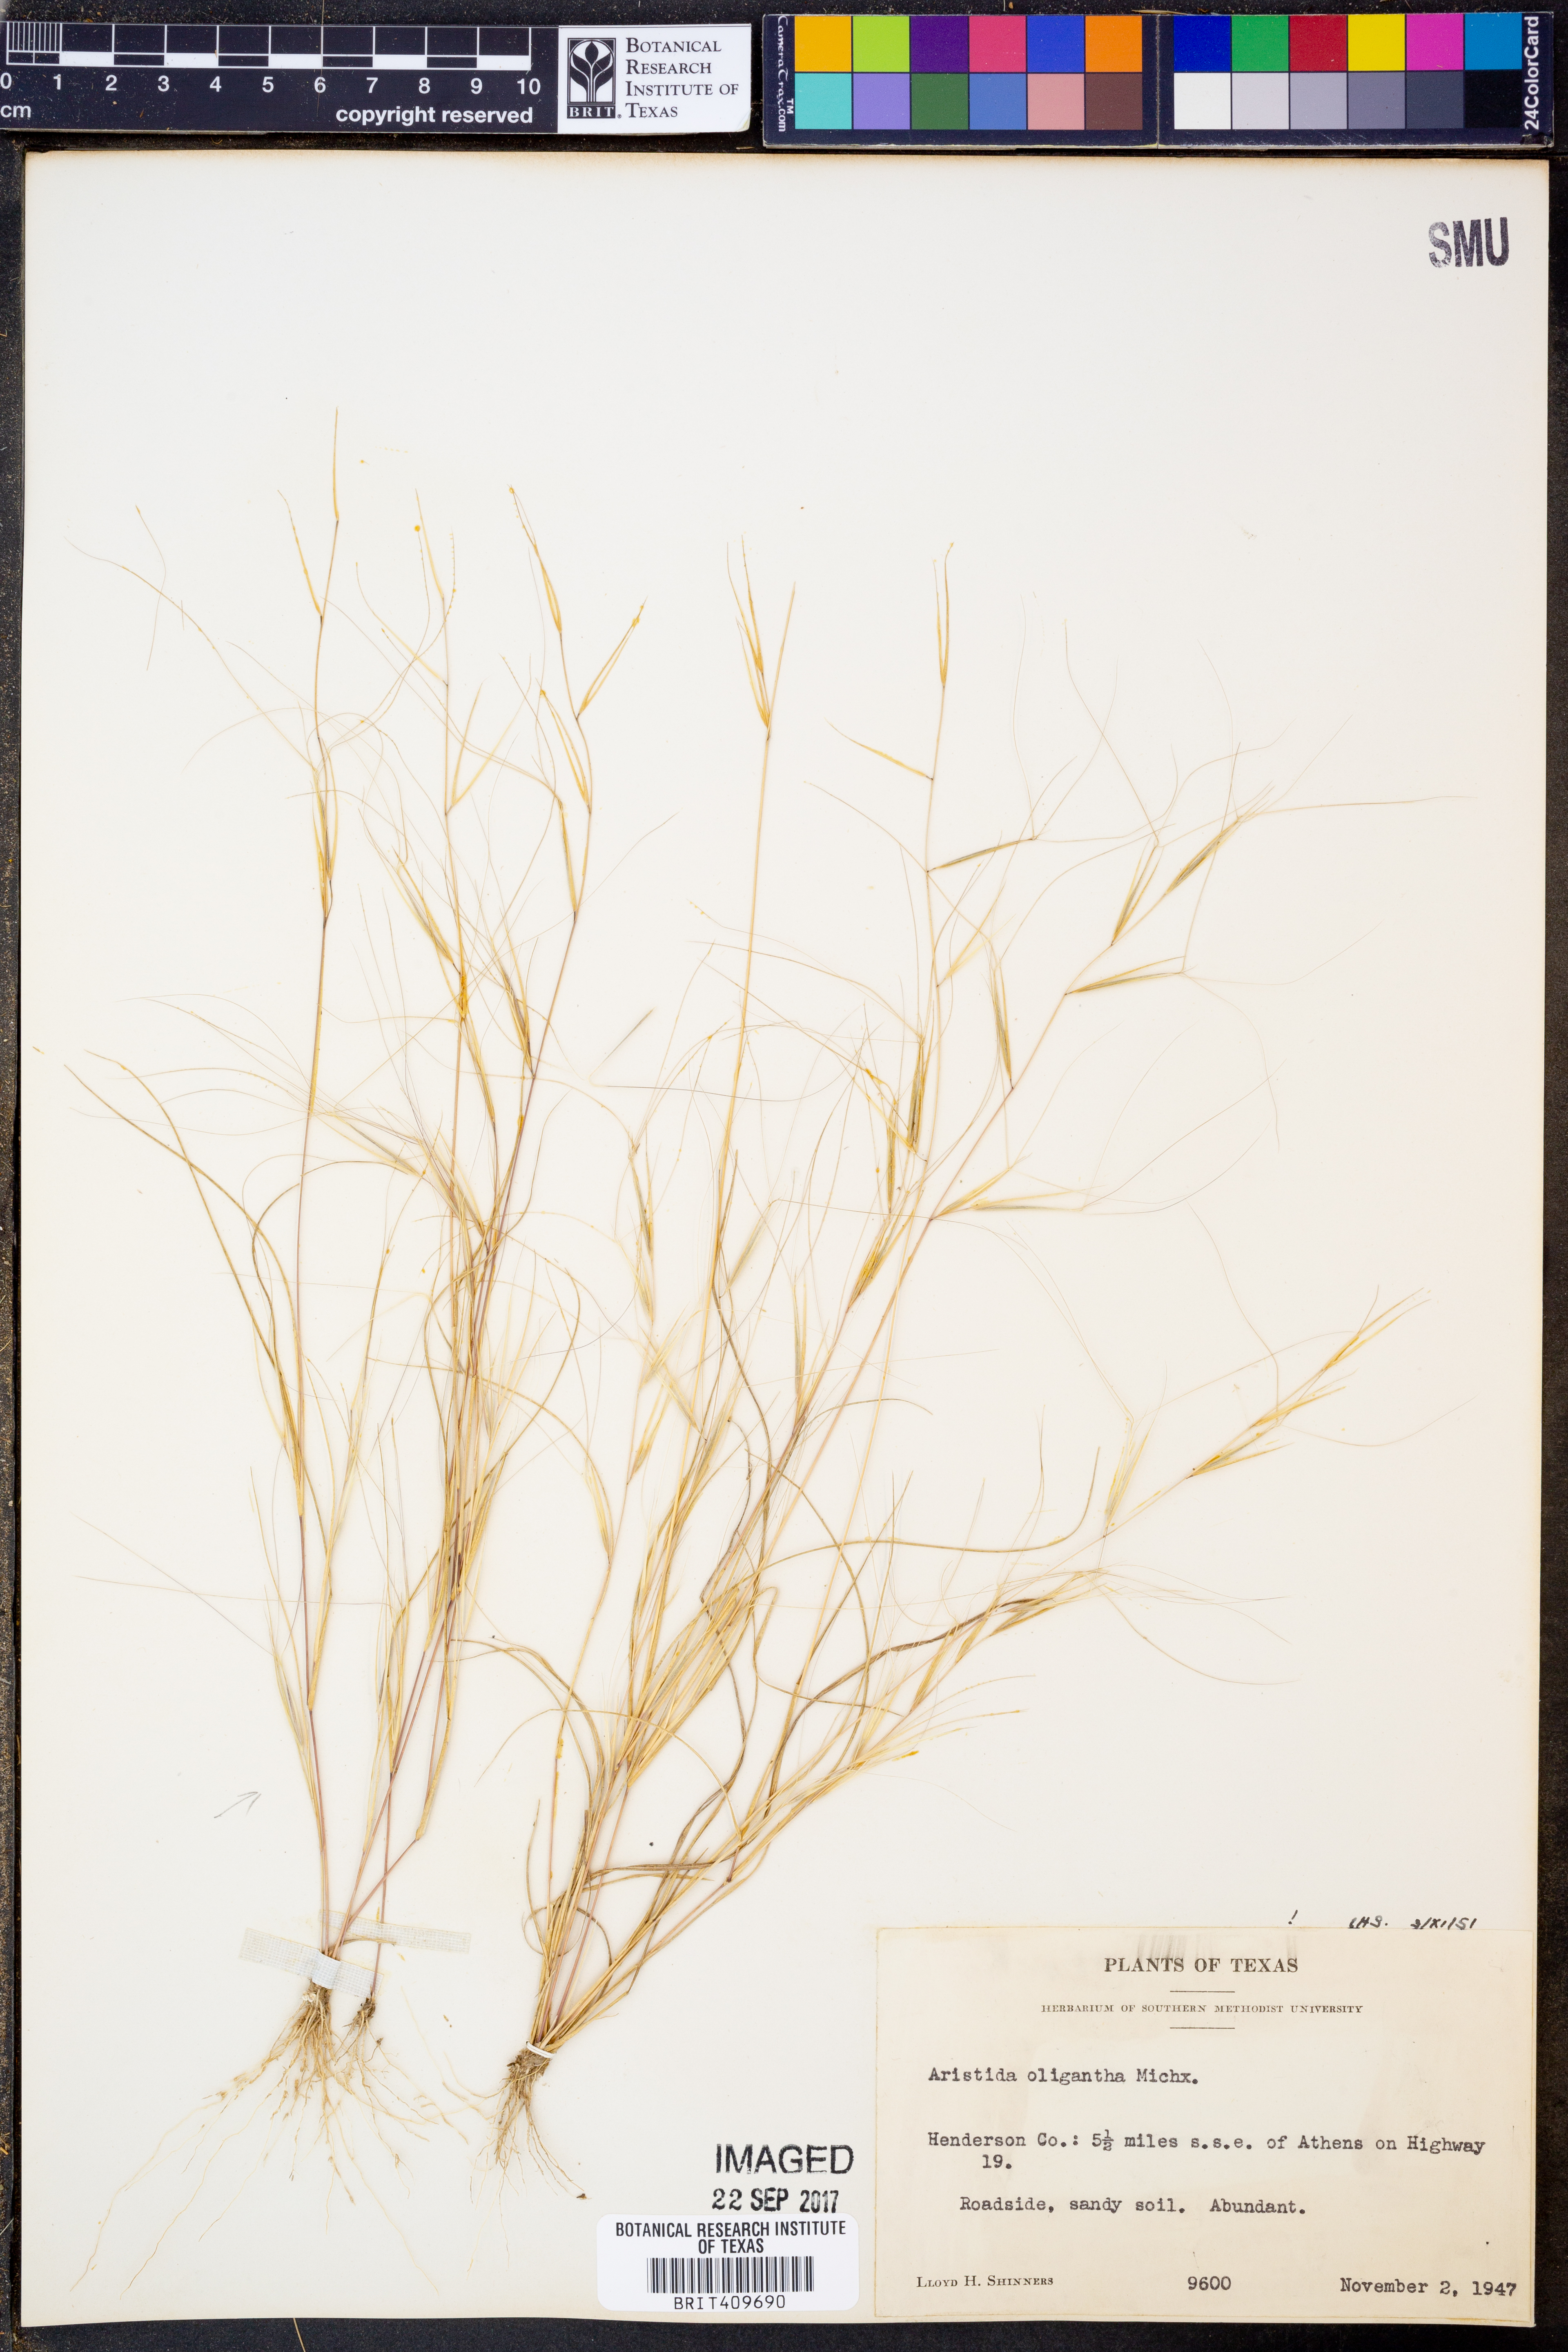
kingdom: Plantae
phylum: Tracheophyta
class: Liliopsida
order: Poales
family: Poaceae
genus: Aristida
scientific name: Aristida oligantha
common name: Few-flowered aristida
